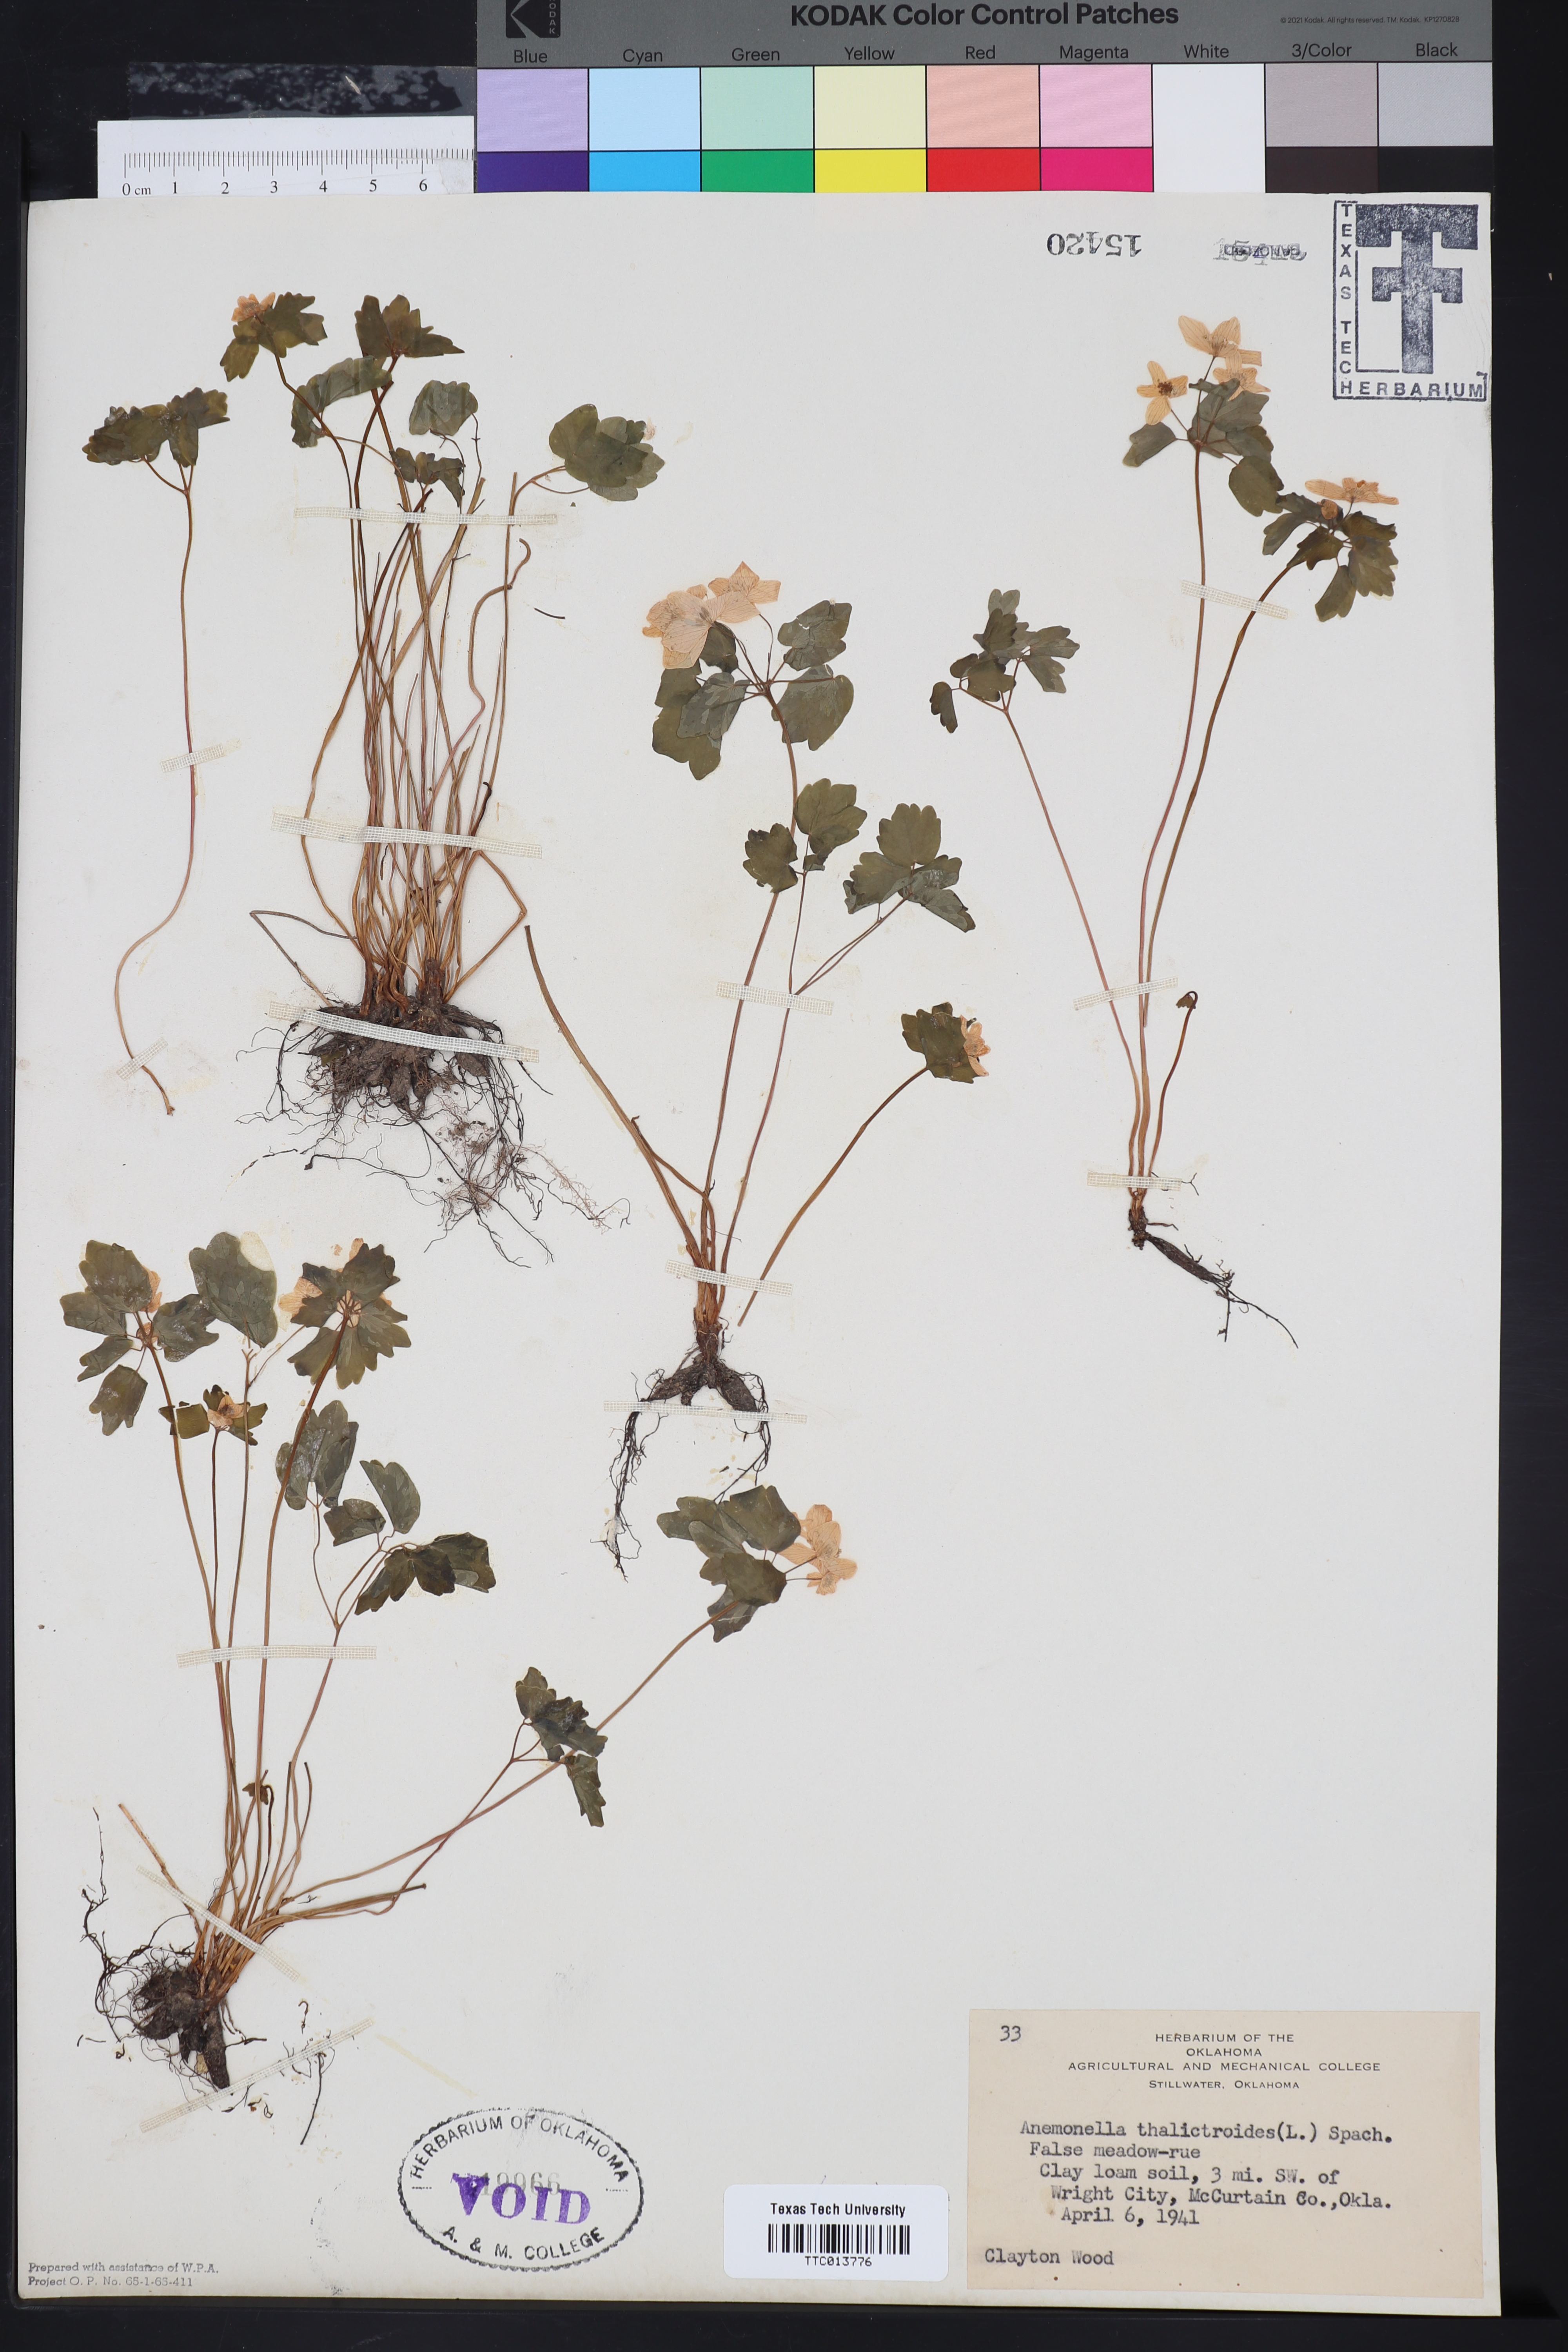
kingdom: Plantae
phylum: Tracheophyta
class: Magnoliopsida
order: Ranunculales
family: Ranunculaceae
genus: Thalictrum
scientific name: Thalictrum thalictroides
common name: Rue-anemone
